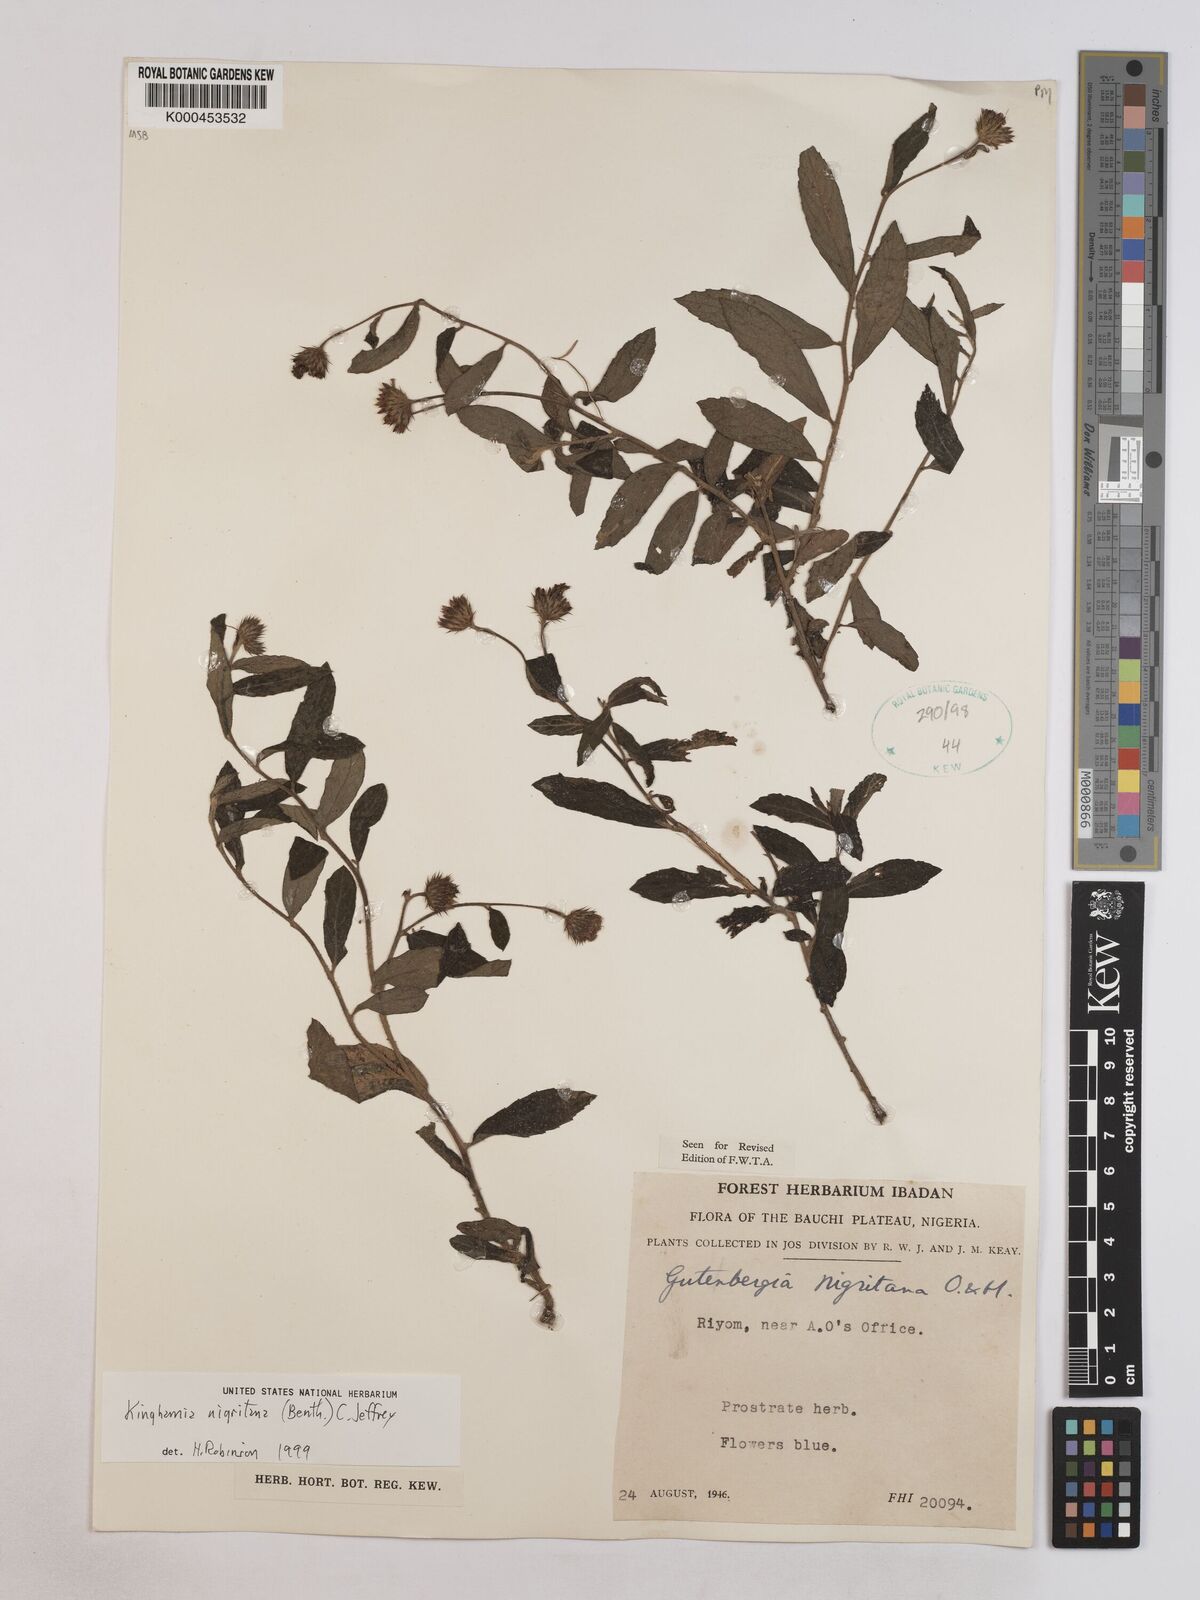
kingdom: Plantae
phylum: Tracheophyta
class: Magnoliopsida
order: Asterales
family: Asteraceae
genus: Kinghamia
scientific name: Kinghamia nigritana
